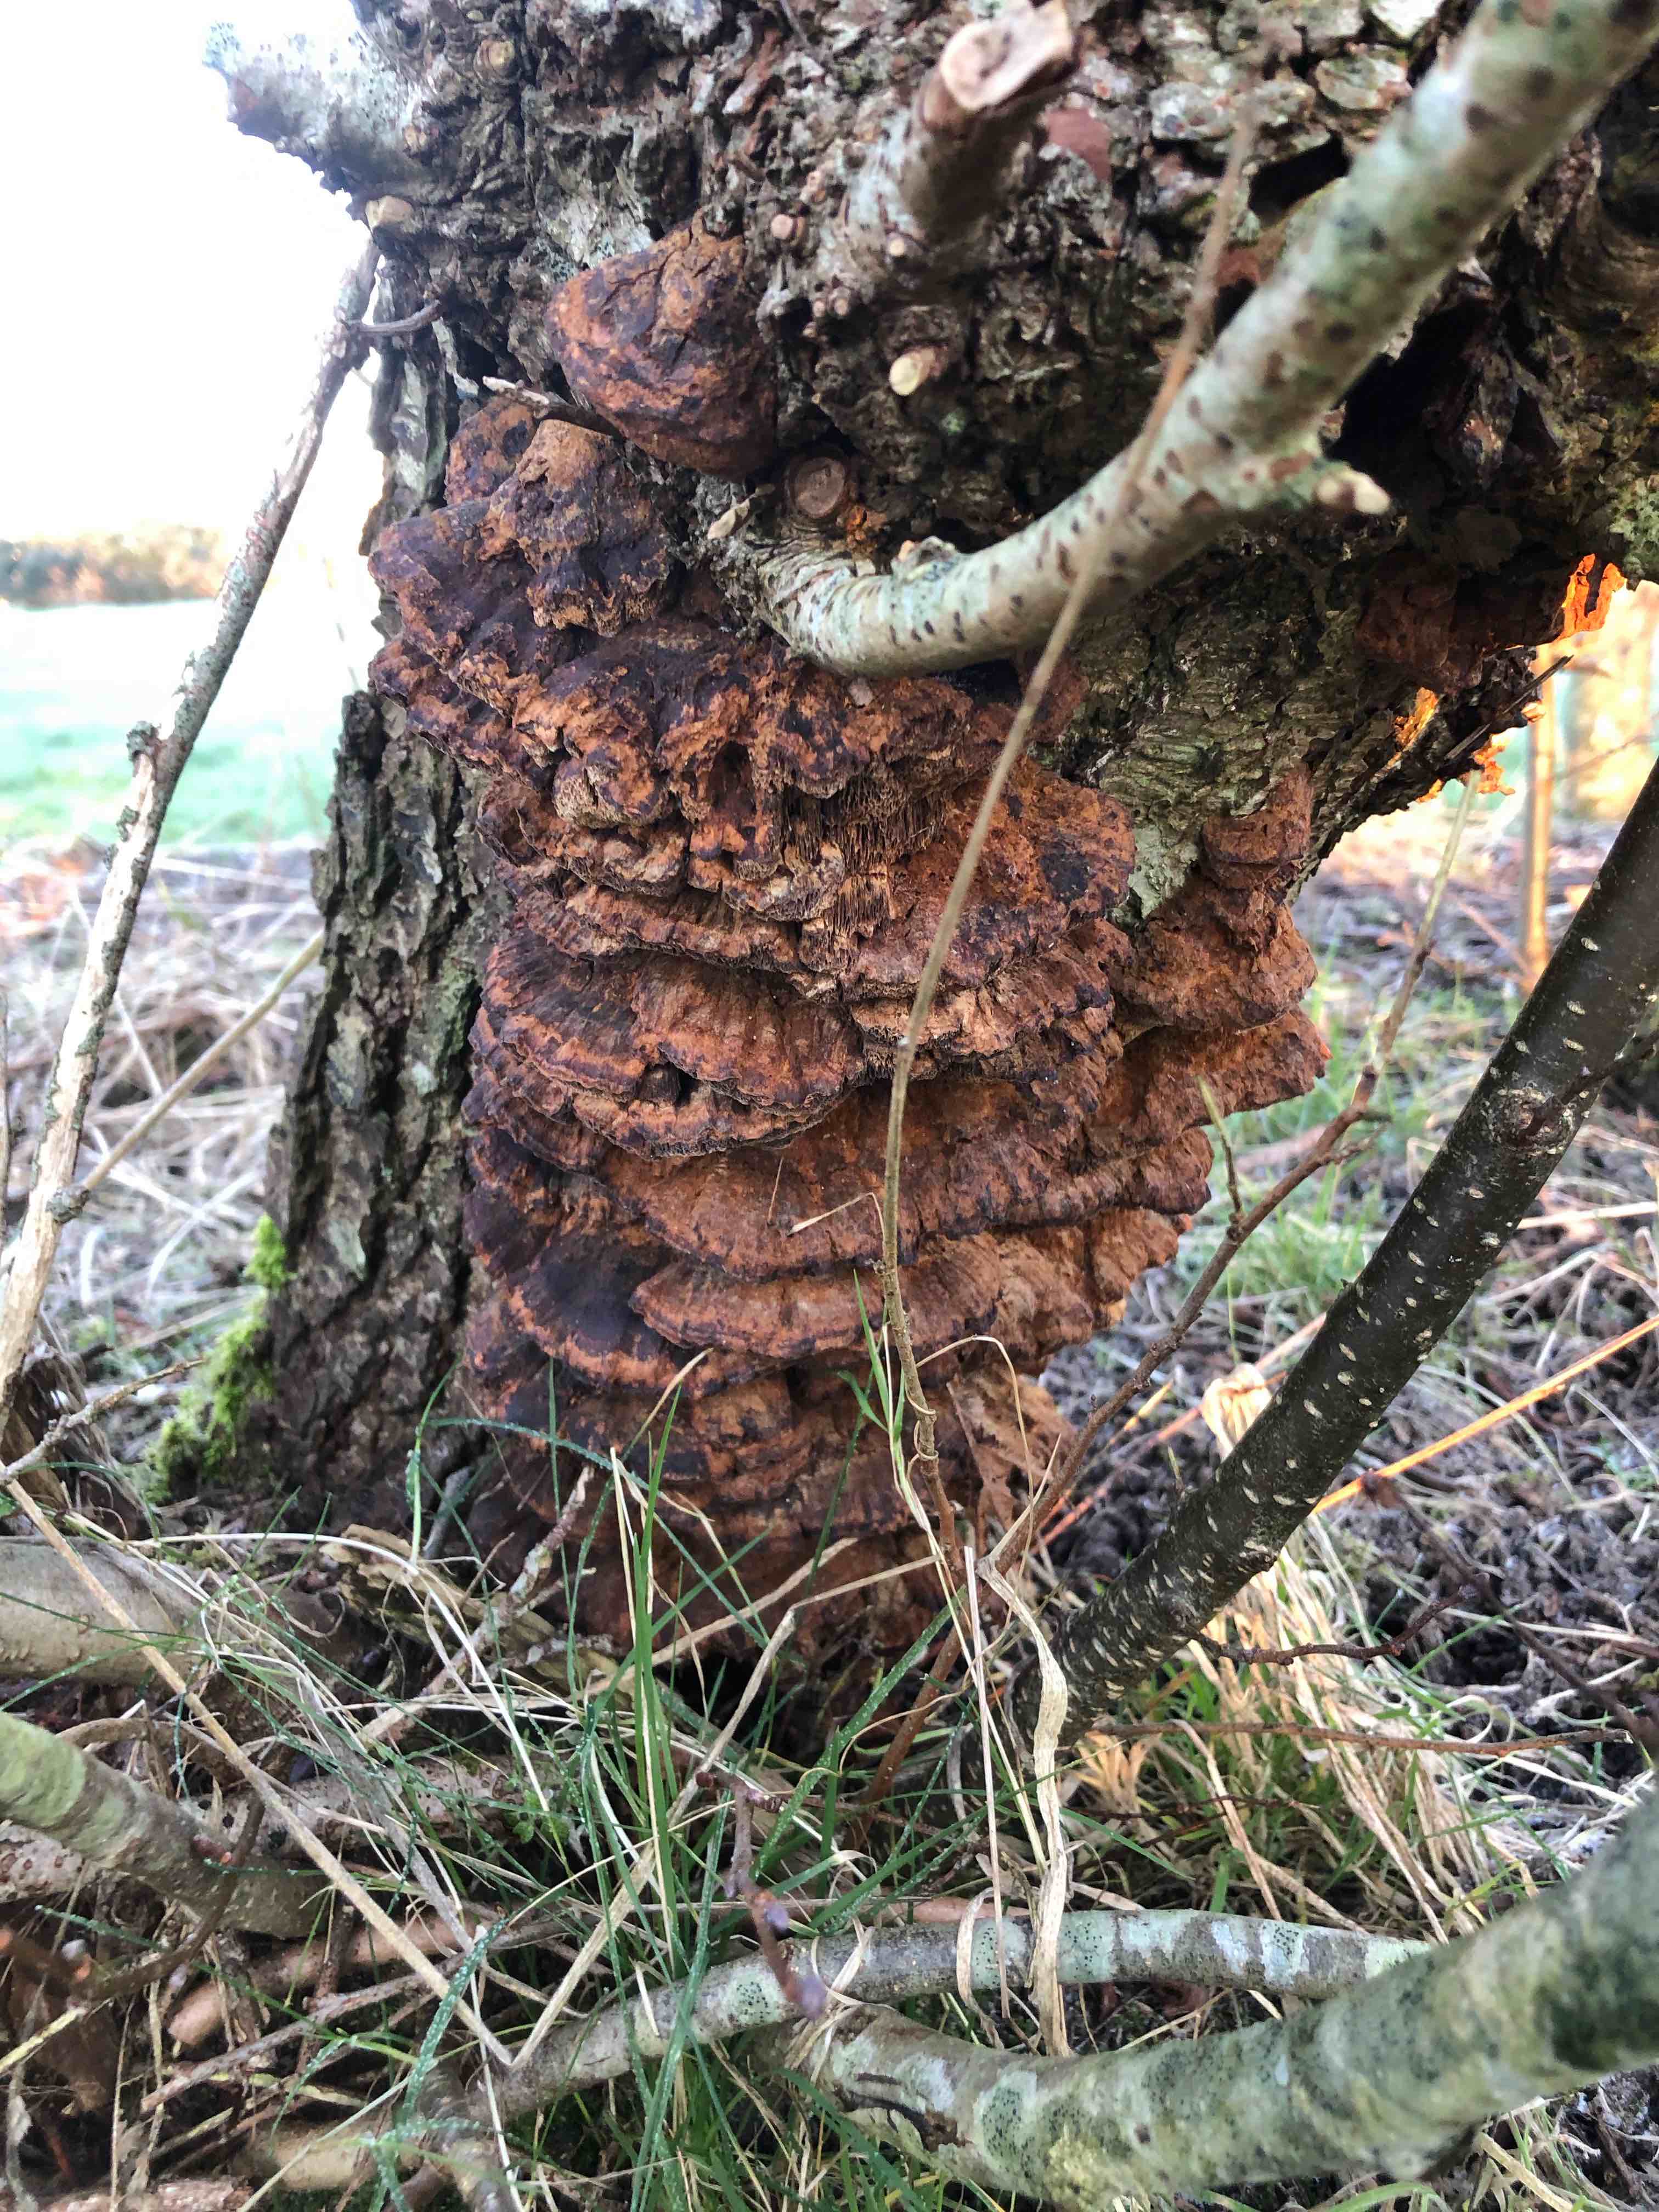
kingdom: Fungi
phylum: Basidiomycota
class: Agaricomycetes
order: Hymenochaetales
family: Hymenochaetaceae
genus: Xanthoporia
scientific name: Xanthoporia radiata
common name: elle-spejlporesvamp
